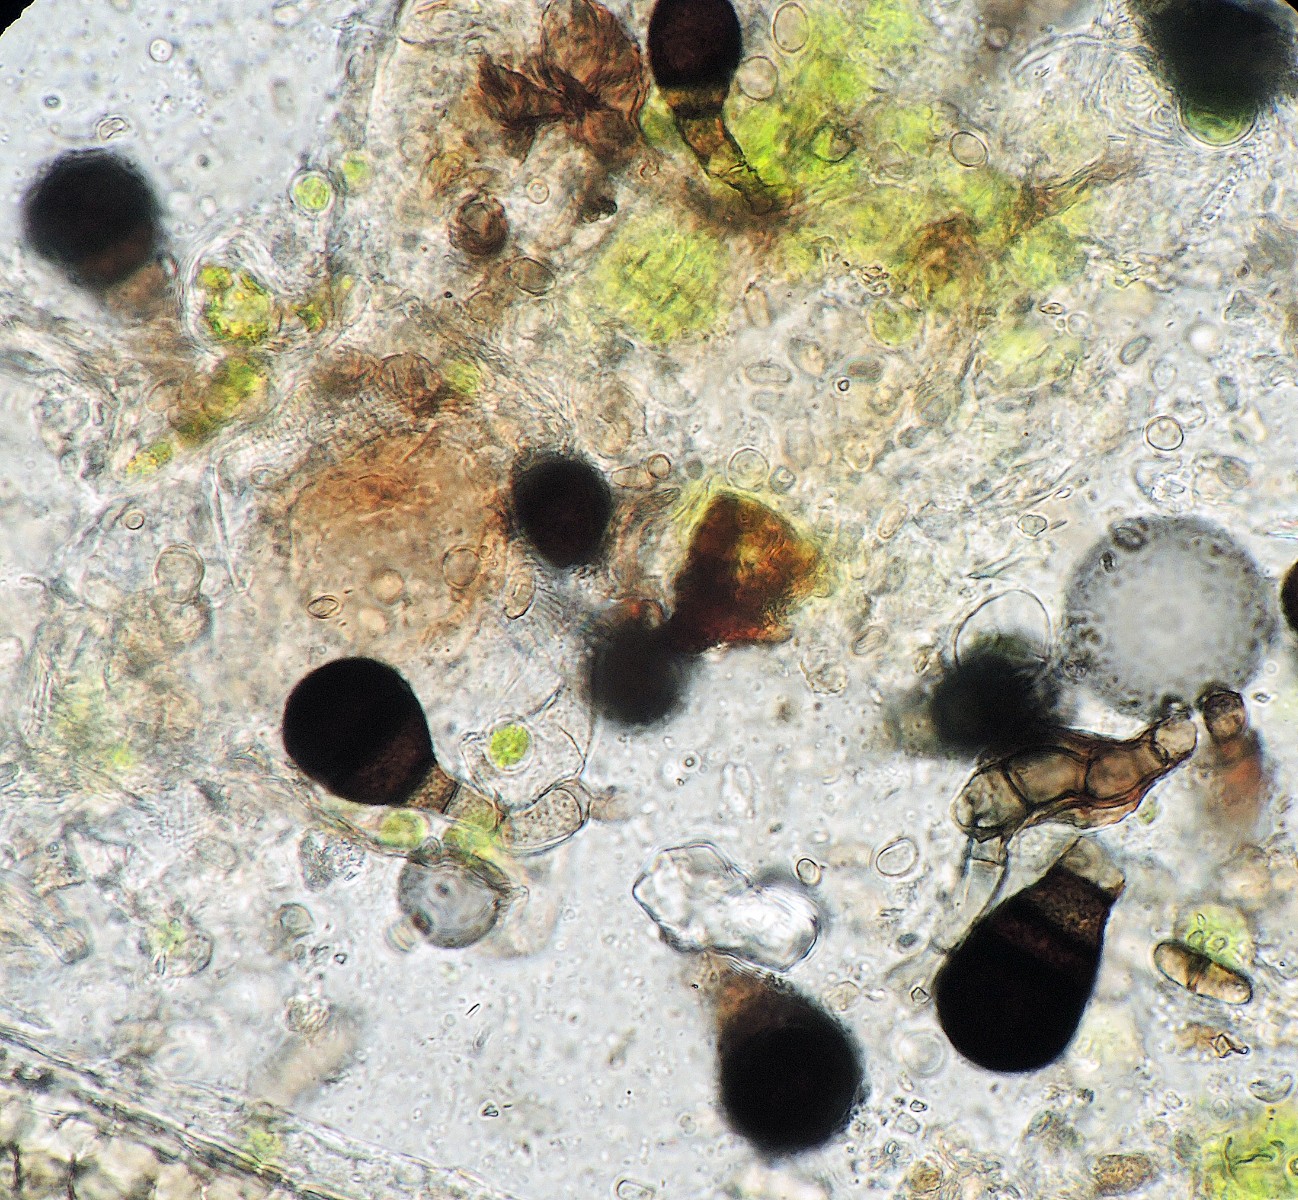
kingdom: Fungi
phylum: Ascomycota
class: Sordariomycetes
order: Sordariales
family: Helminthosphaeriaceae
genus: Endophragmiella
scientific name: Endophragmiella biseptata
